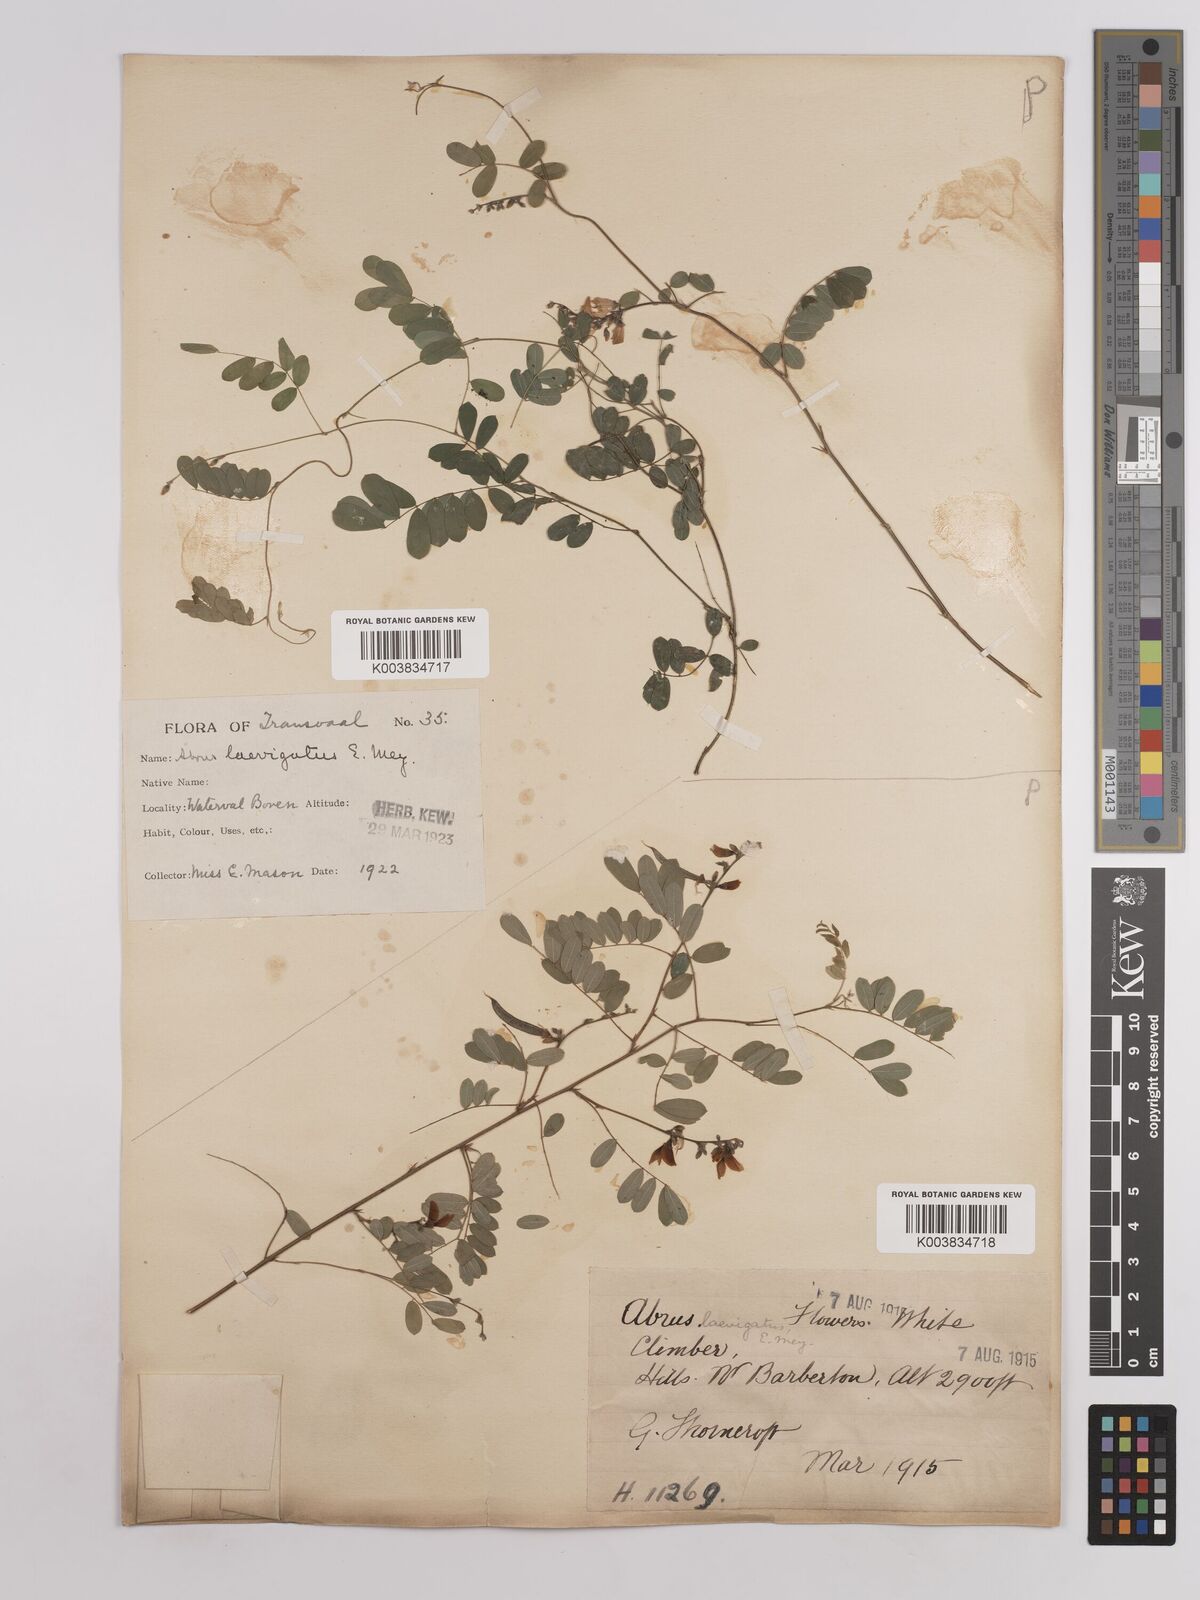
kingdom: Plantae
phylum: Tracheophyta
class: Magnoliopsida
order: Fabales
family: Fabaceae
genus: Abrus
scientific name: Abrus laevigatus
